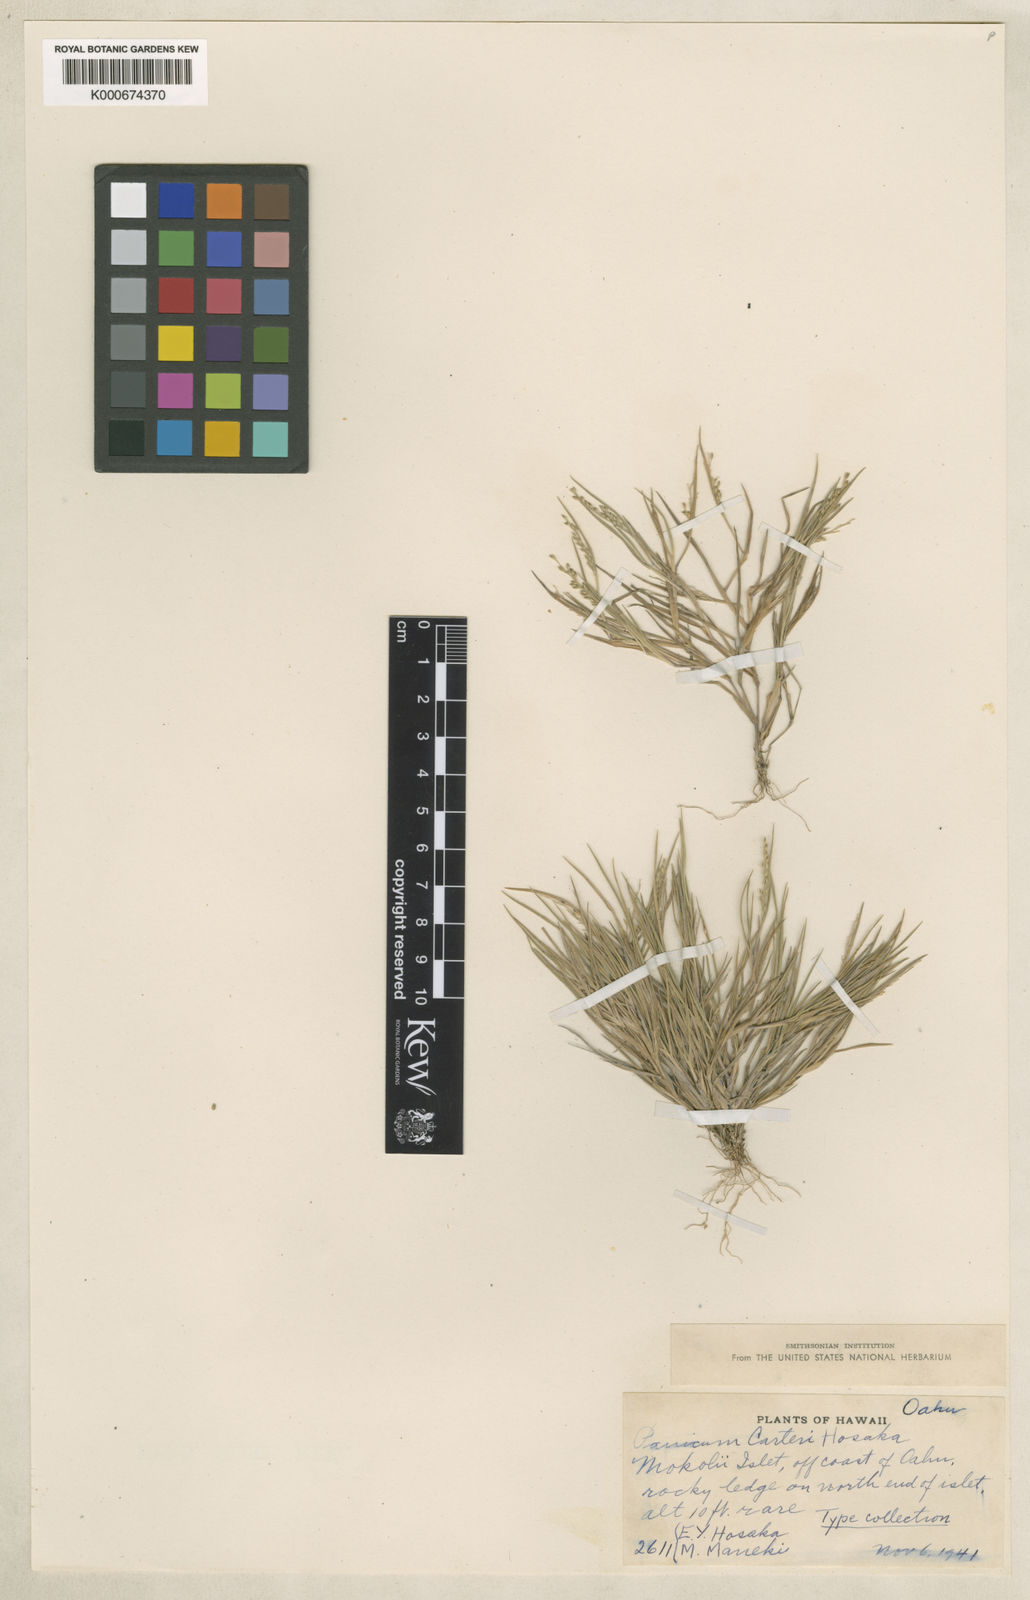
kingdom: Plantae
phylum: Tracheophyta
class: Liliopsida
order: Poales
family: Poaceae
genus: Panicum
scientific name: Panicum fauriei
